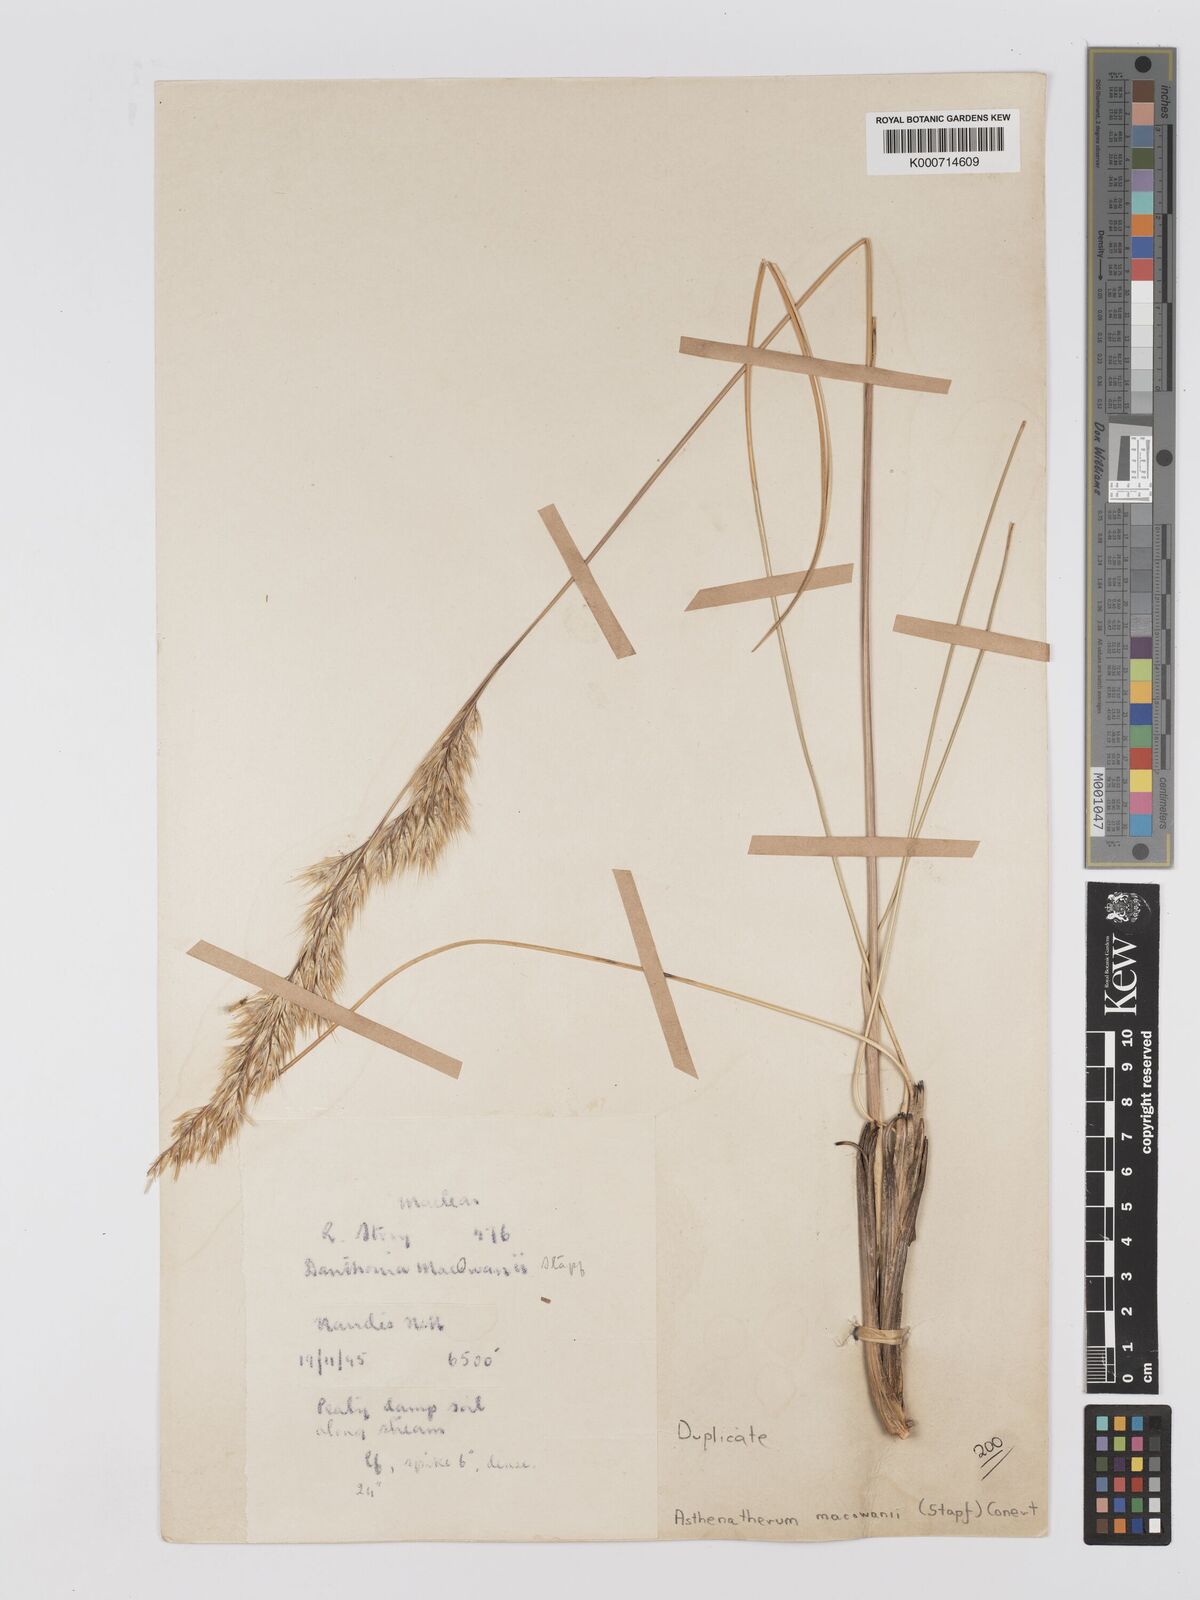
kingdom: Plantae
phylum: Tracheophyta
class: Liliopsida
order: Poales
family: Poaceae
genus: Rytidosperma
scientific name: Rytidosperma
